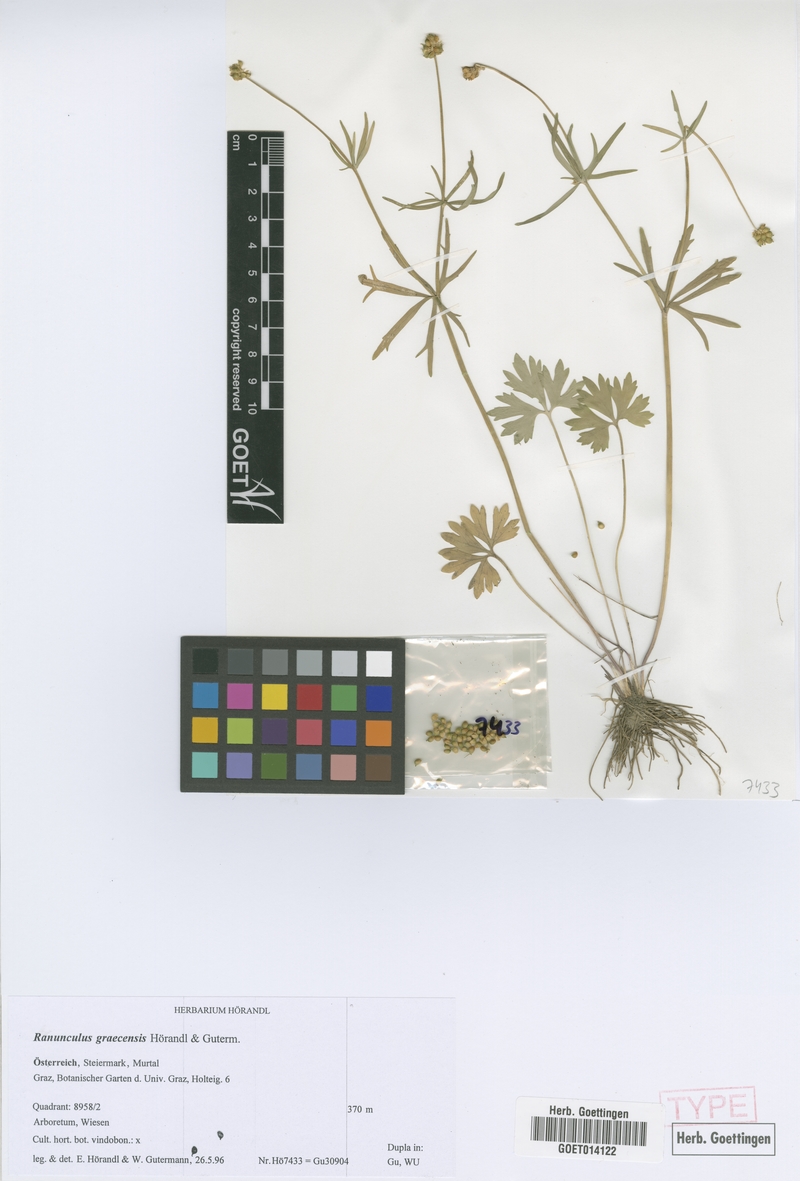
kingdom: Plantae
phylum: Tracheophyta
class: Magnoliopsida
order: Ranunculales
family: Ranunculaceae
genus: Ranunculus
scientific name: Ranunculus graecensis
